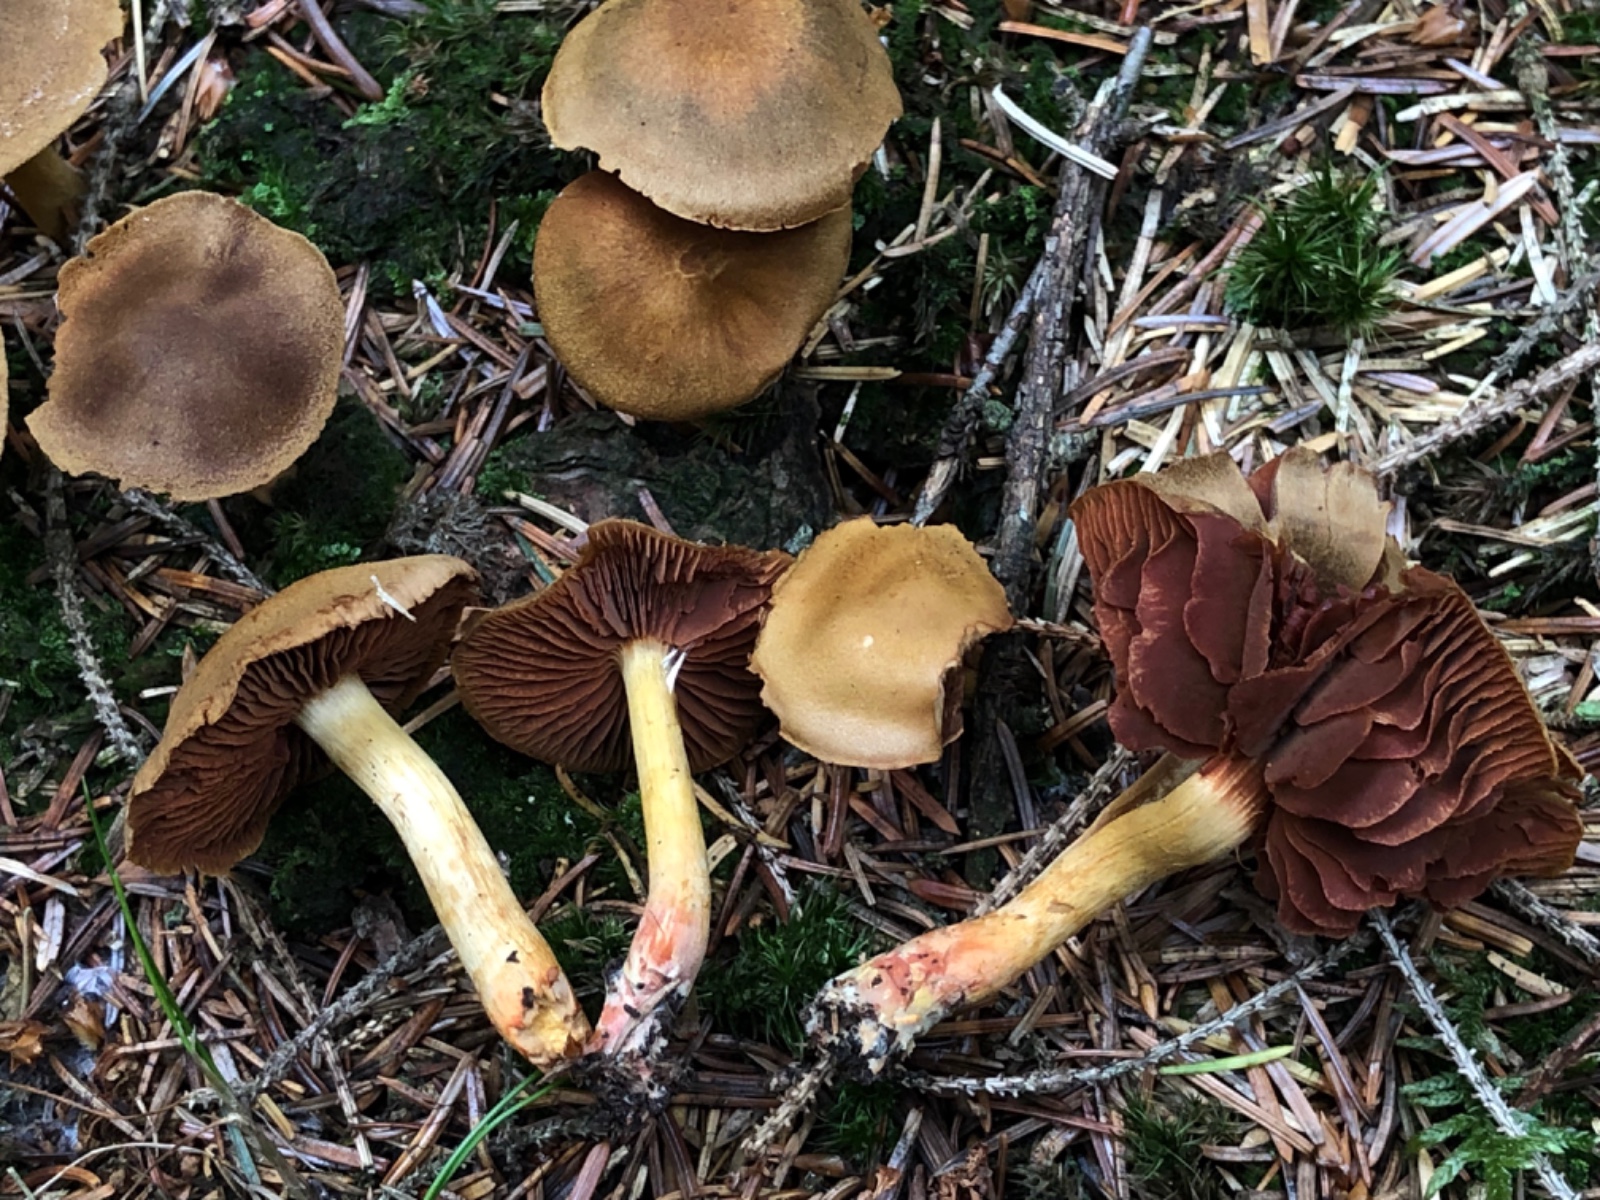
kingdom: Fungi
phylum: Basidiomycota
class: Agaricomycetes
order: Agaricales
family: Cortinariaceae
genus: Cortinarius
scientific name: Cortinarius
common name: cinnoberbladet slørhat
